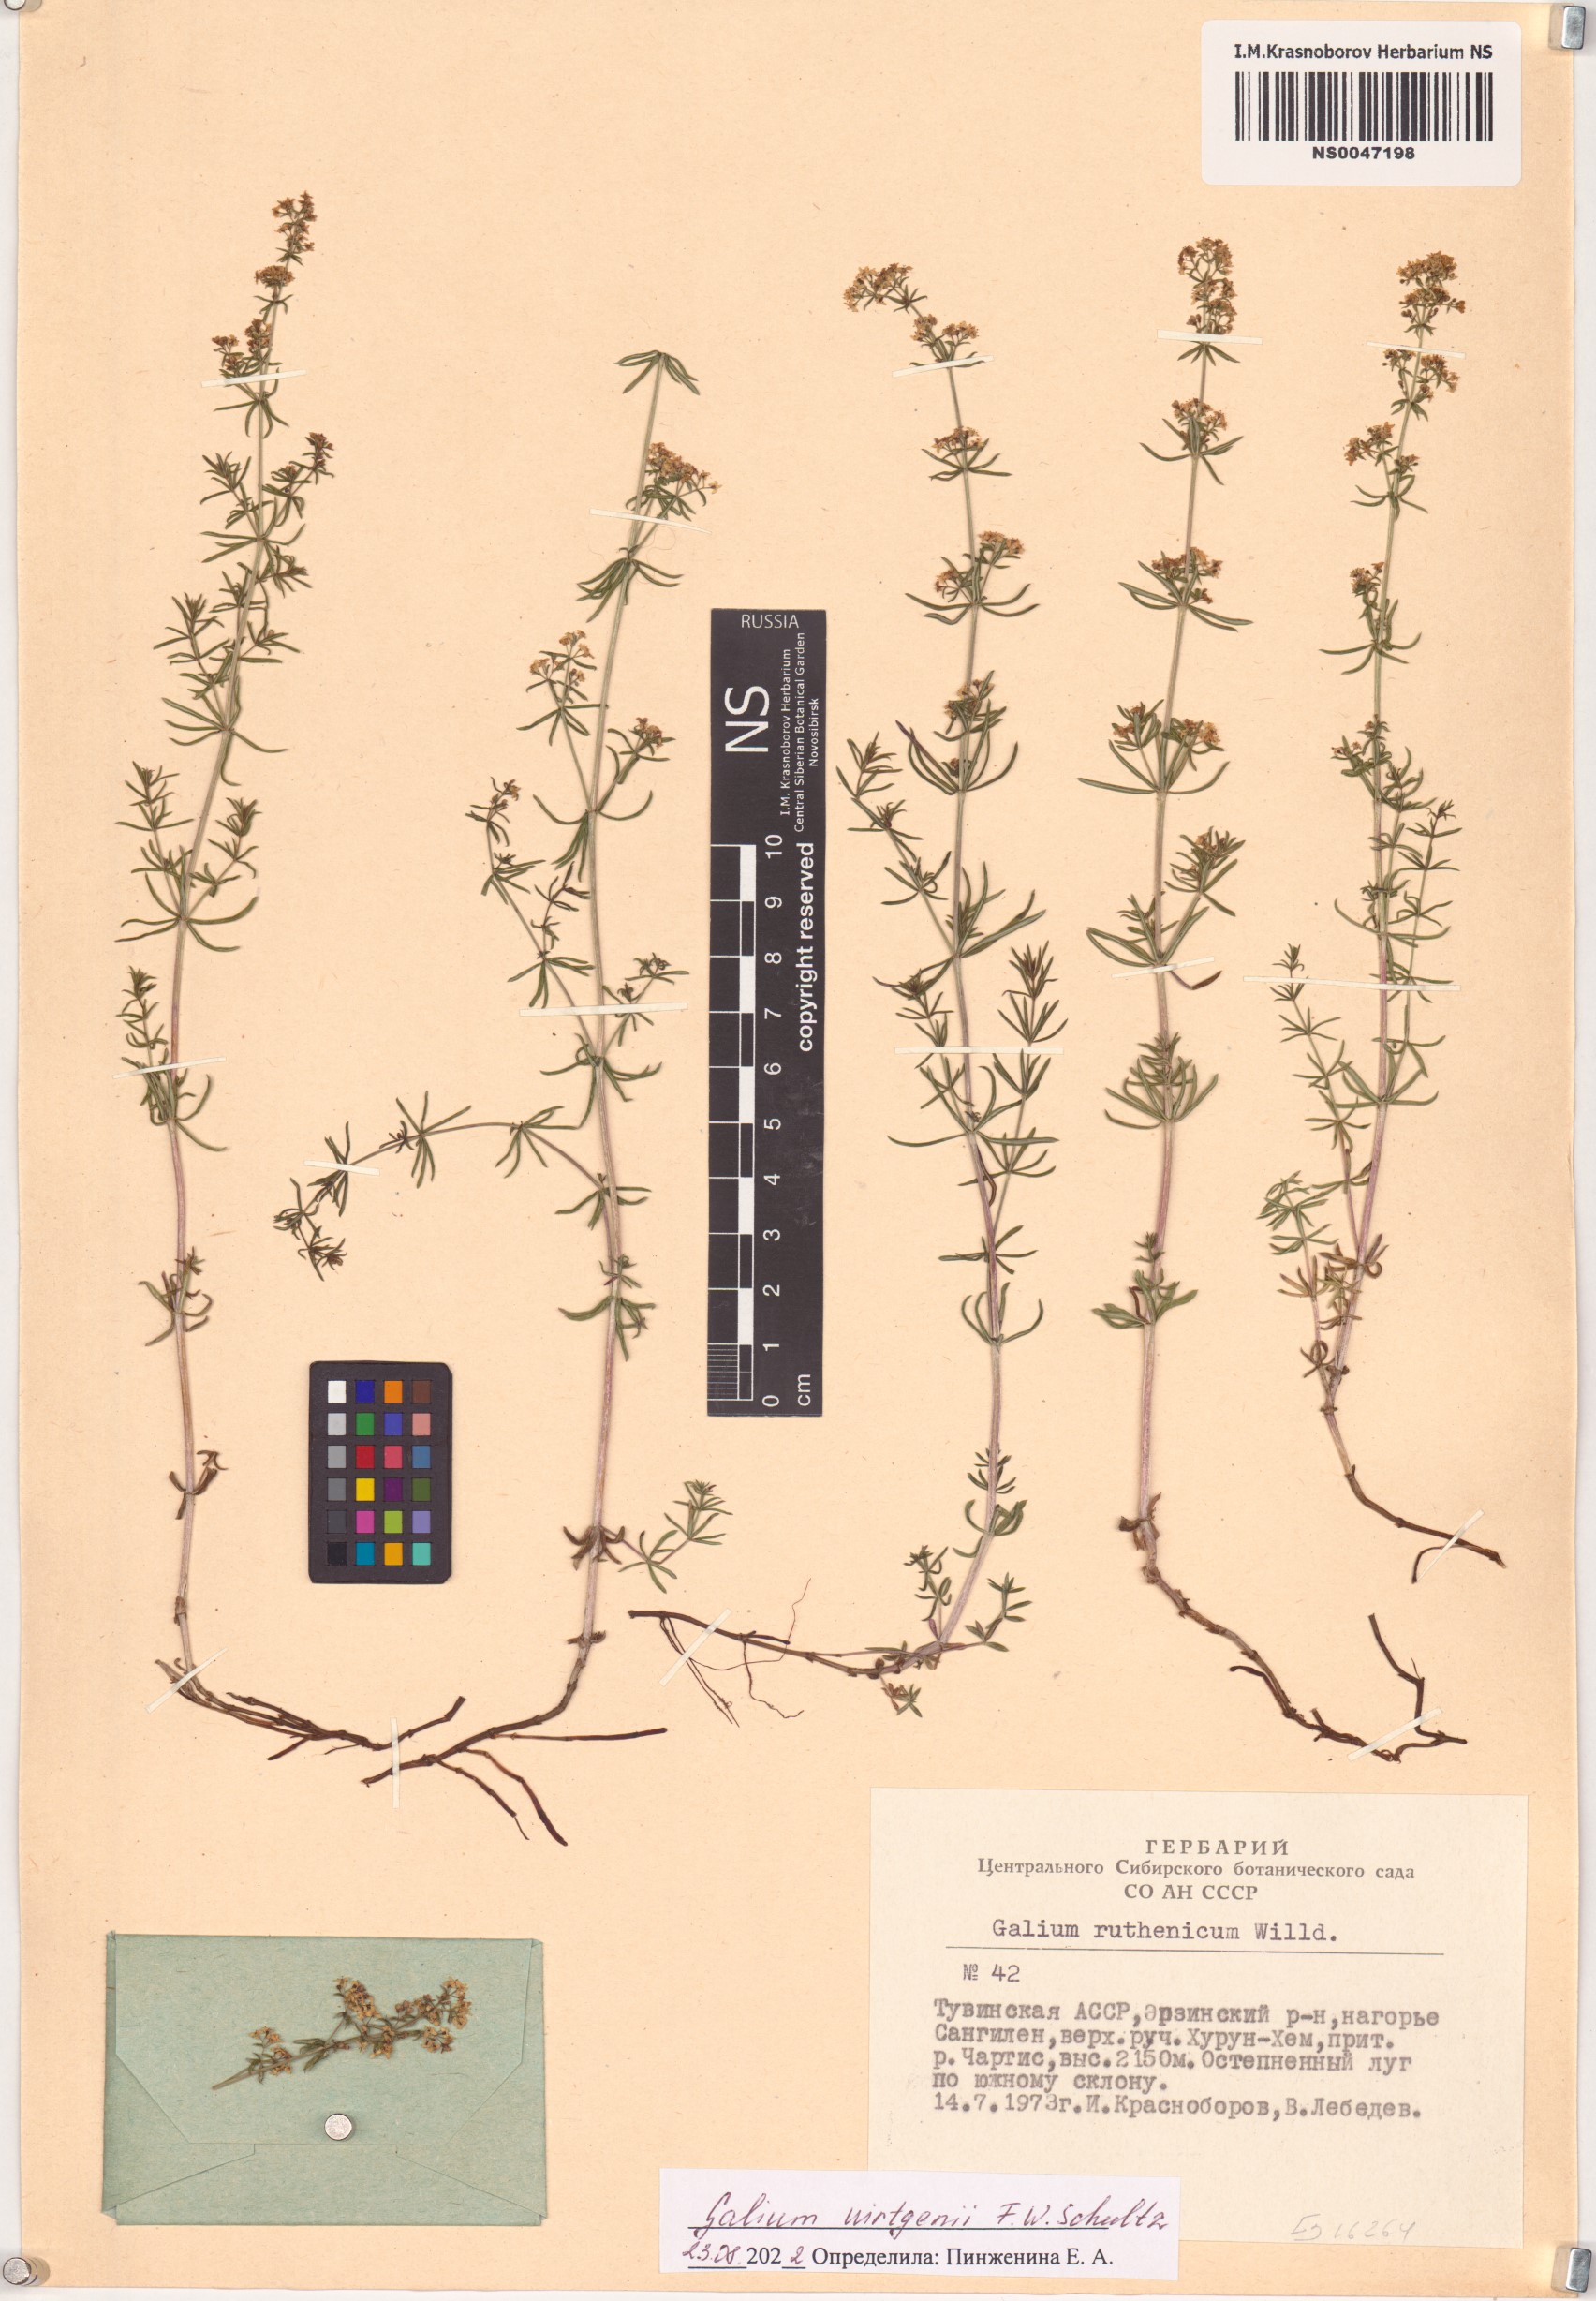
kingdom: Plantae
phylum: Tracheophyta
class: Magnoliopsida
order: Gentianales
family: Rubiaceae
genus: Galium
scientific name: Galium verum
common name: Lady's bedstraw
